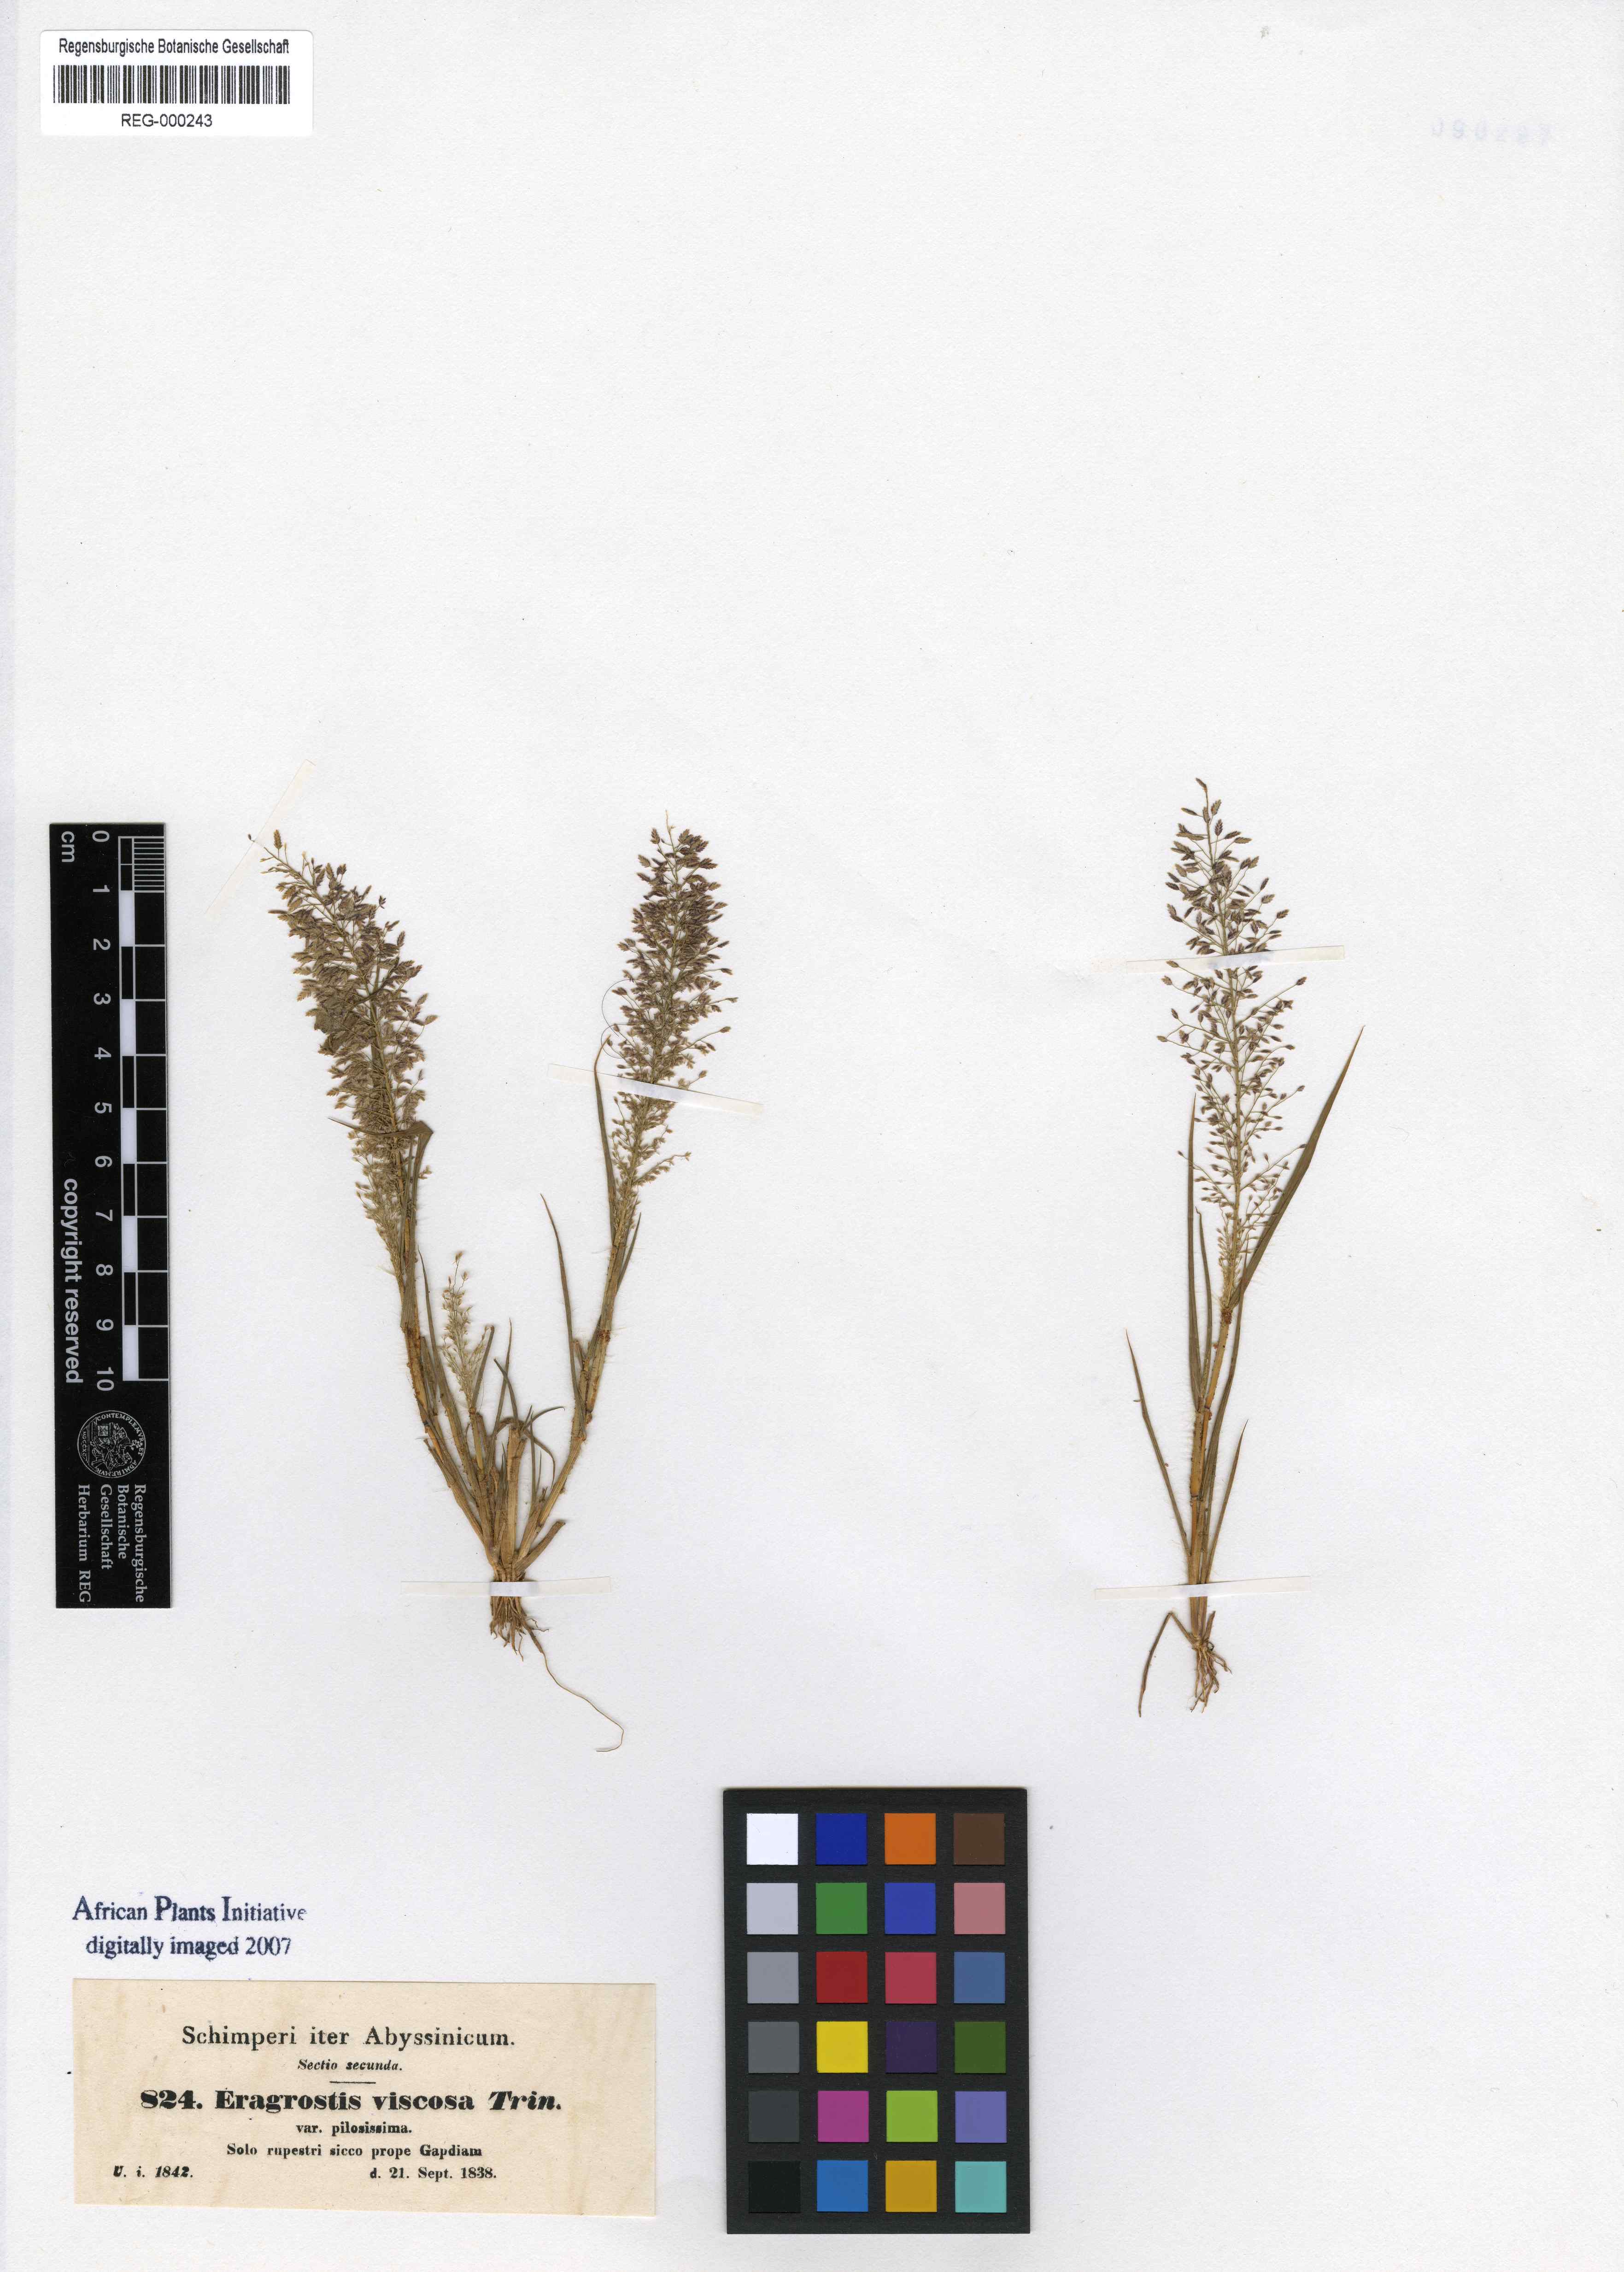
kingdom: Plantae
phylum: Tracheophyta
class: Liliopsida
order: Poales
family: Poaceae
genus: Eragrostis
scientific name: Eragrostis viscosa
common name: Sticky love grass
